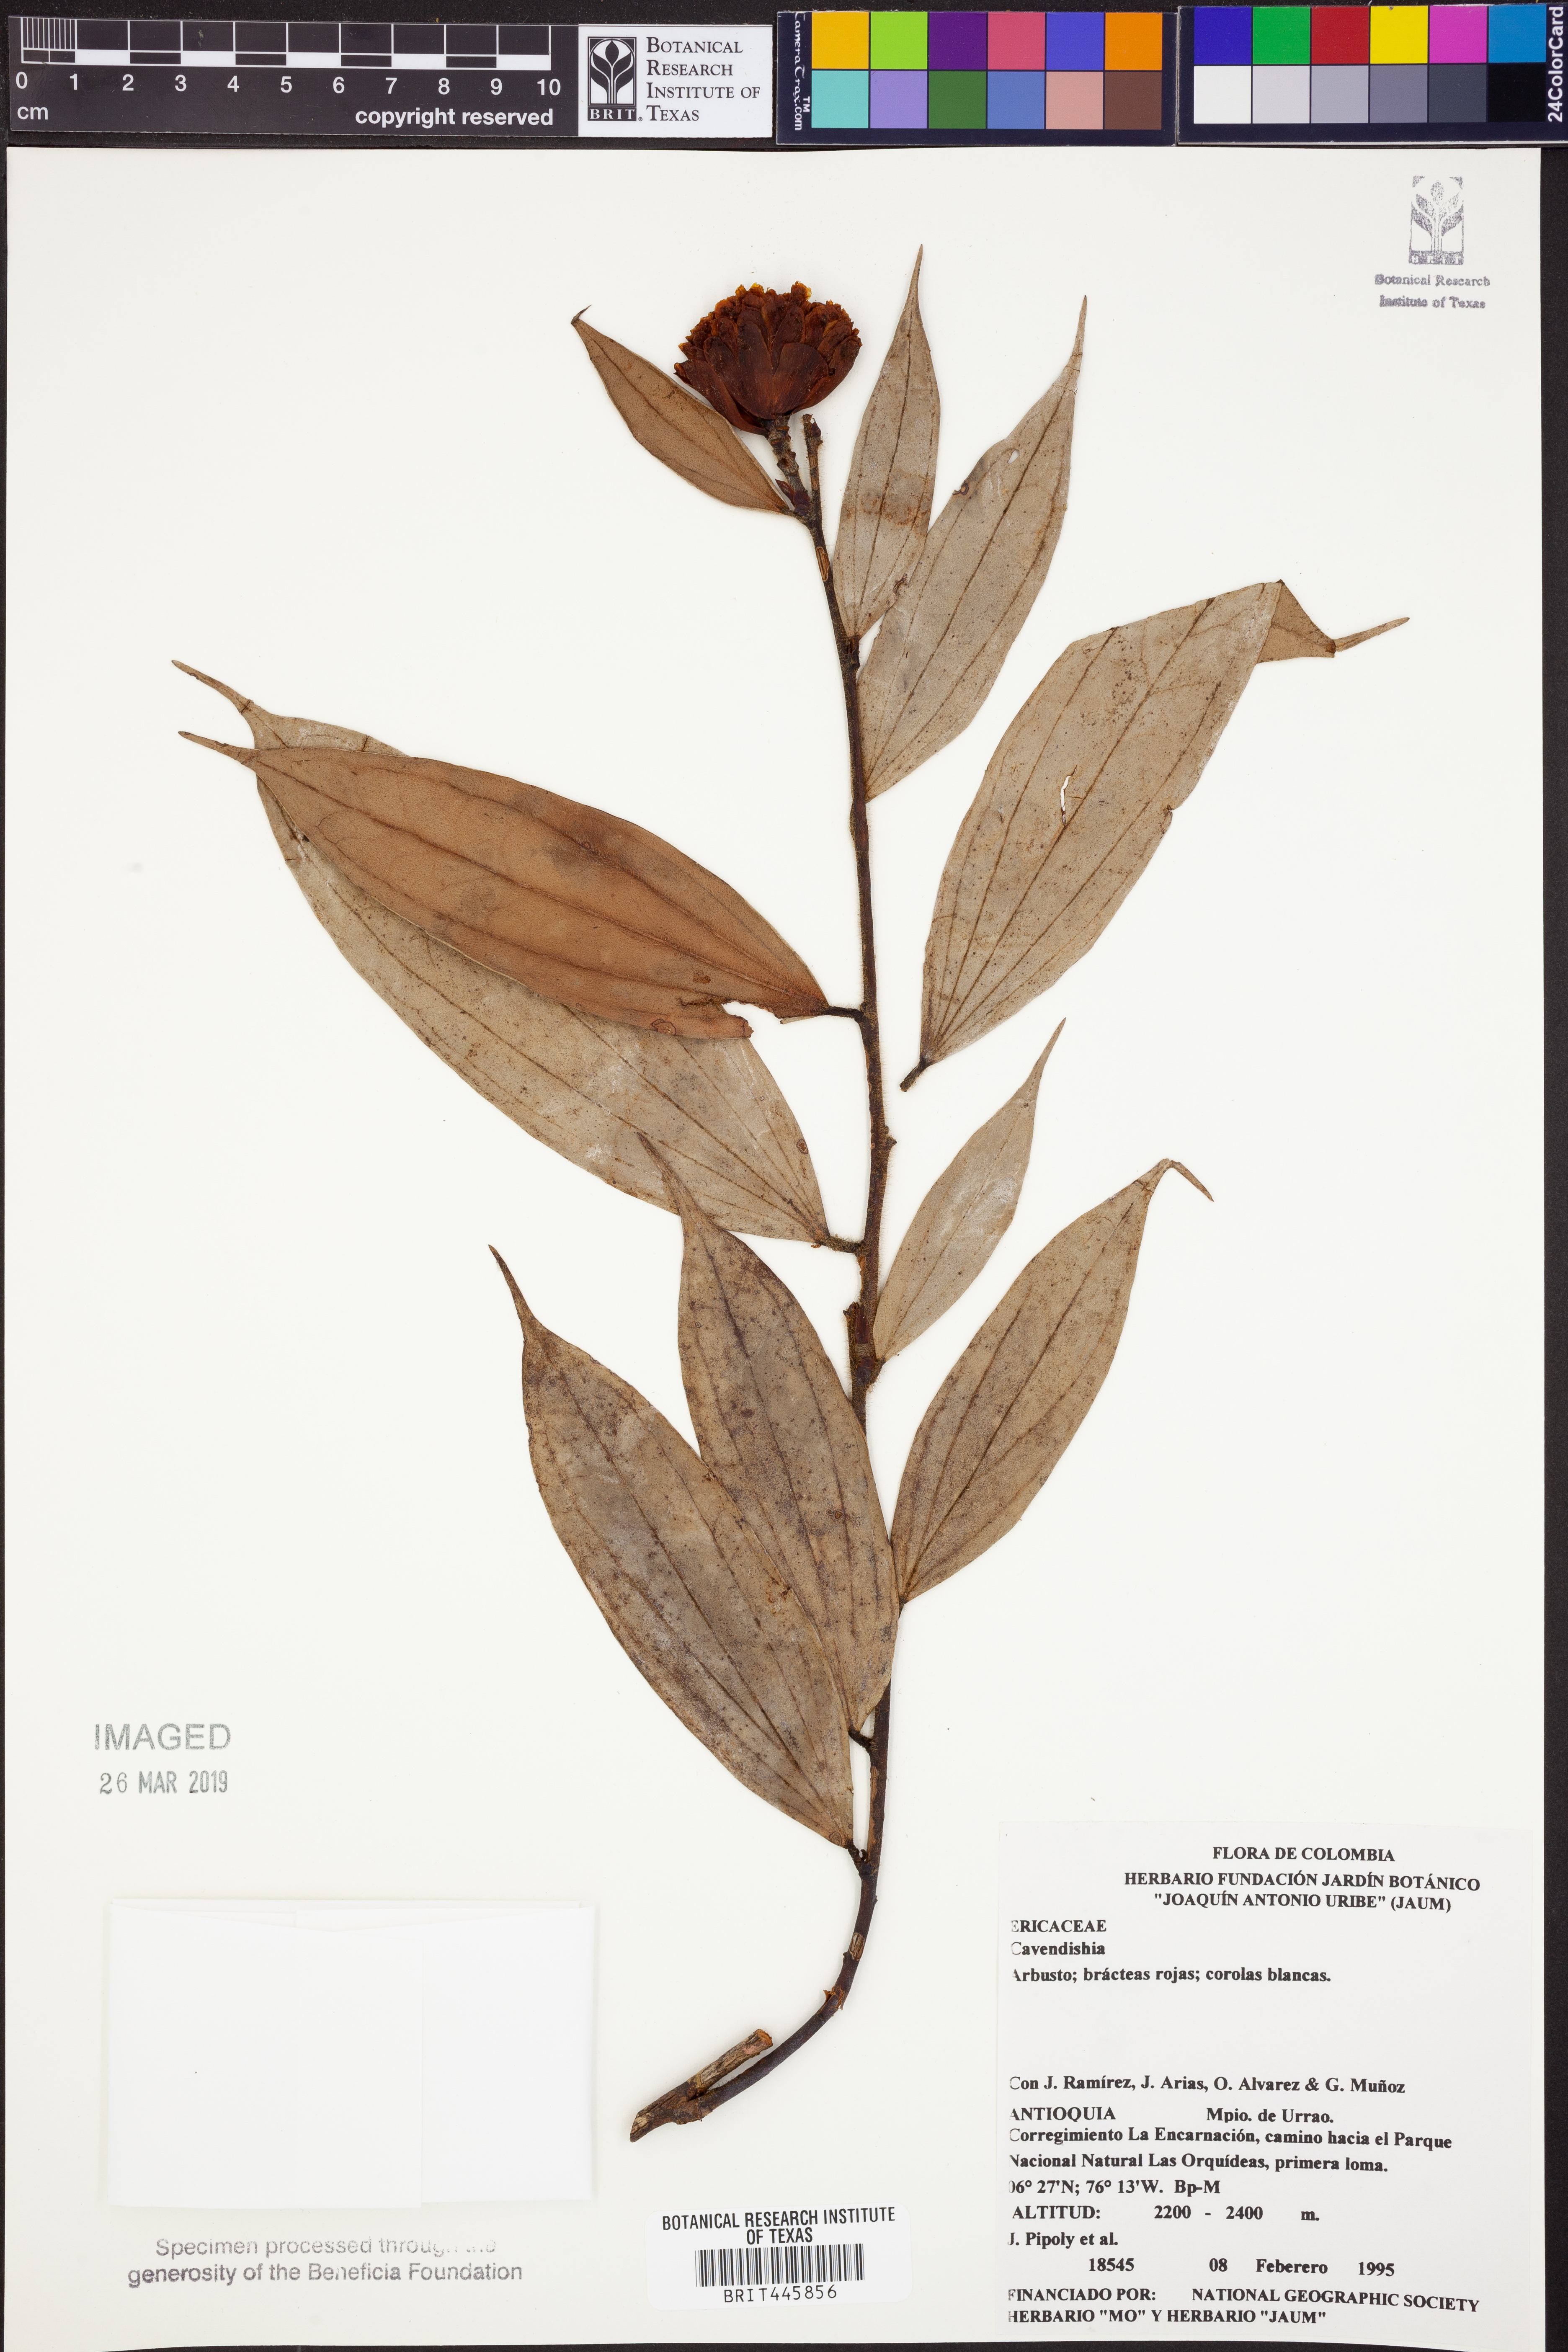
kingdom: Plantae
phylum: Tracheophyta
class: Magnoliopsida
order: Ericales
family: Ericaceae
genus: Cavendishia
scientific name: Cavendishia
